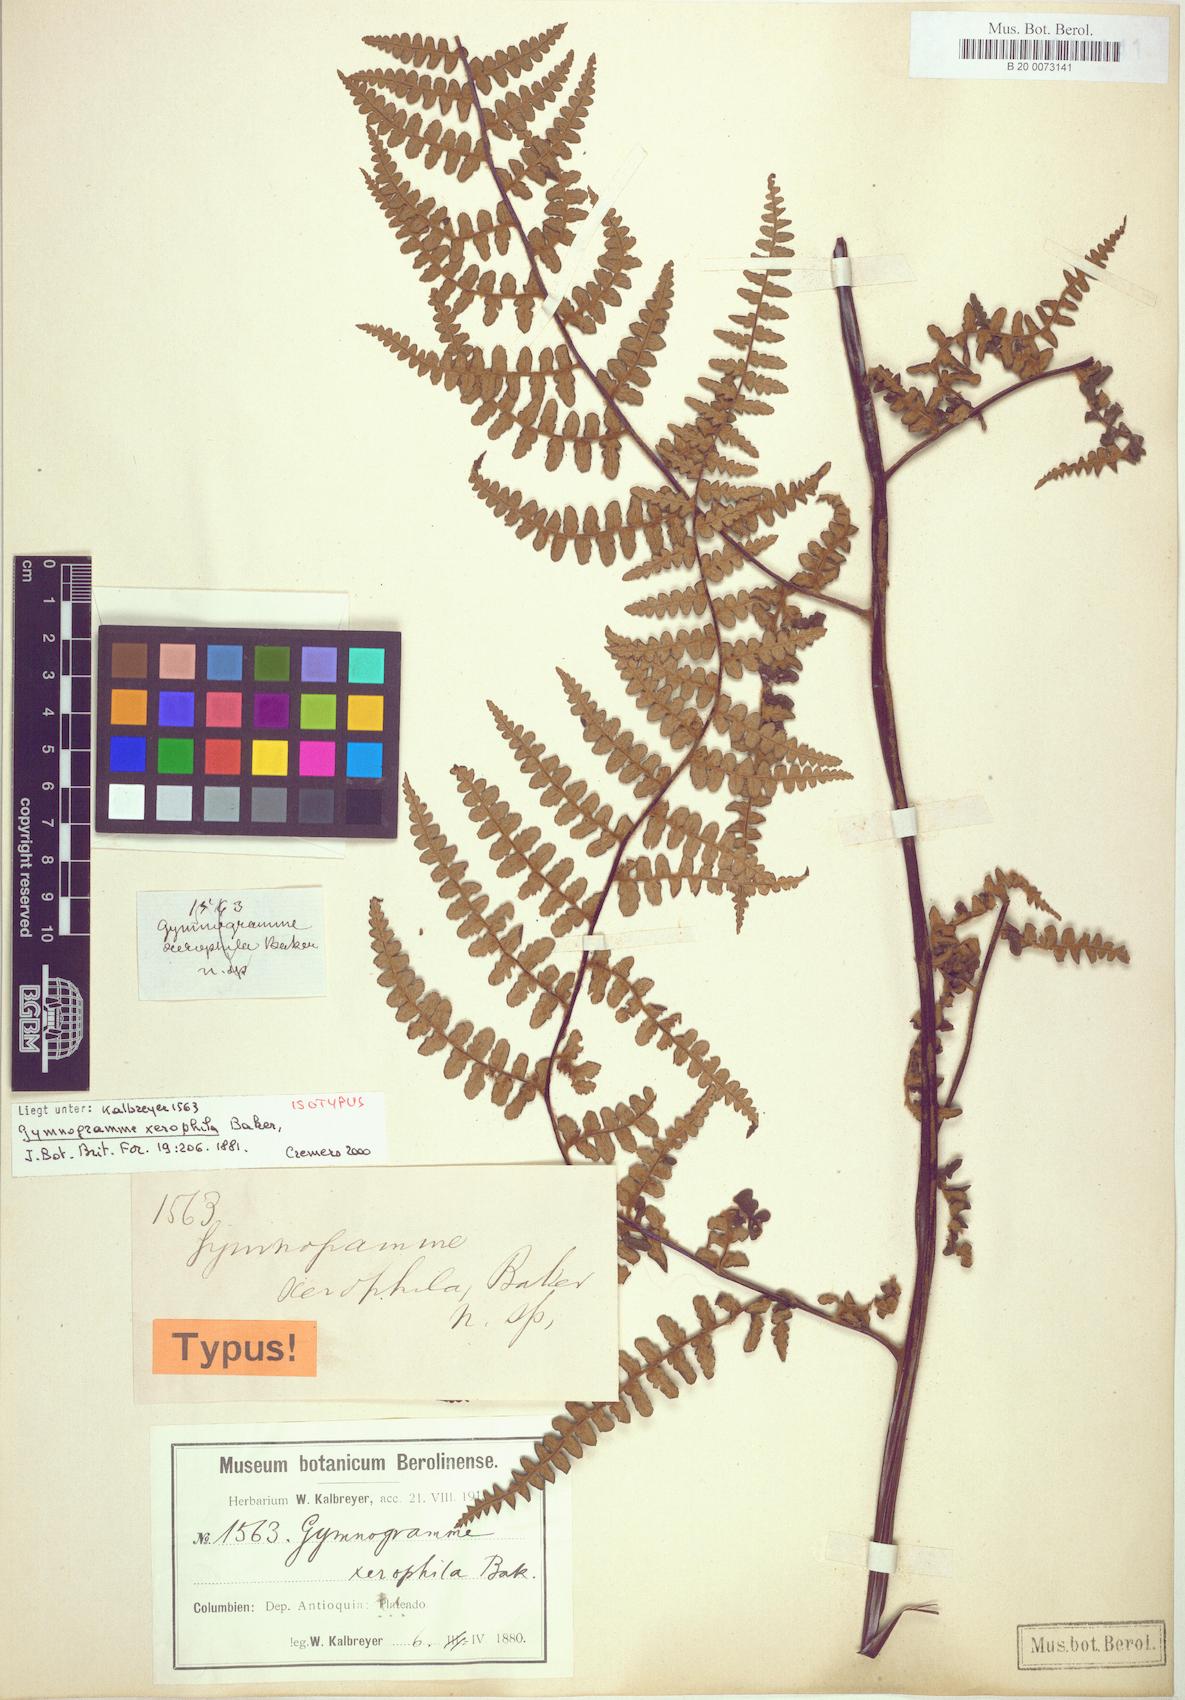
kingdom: Plantae
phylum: Tracheophyta
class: Polypodiopsida
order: Polypodiales
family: Pteridaceae
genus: Pityrogramma
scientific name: Pityrogramma jamesonii
